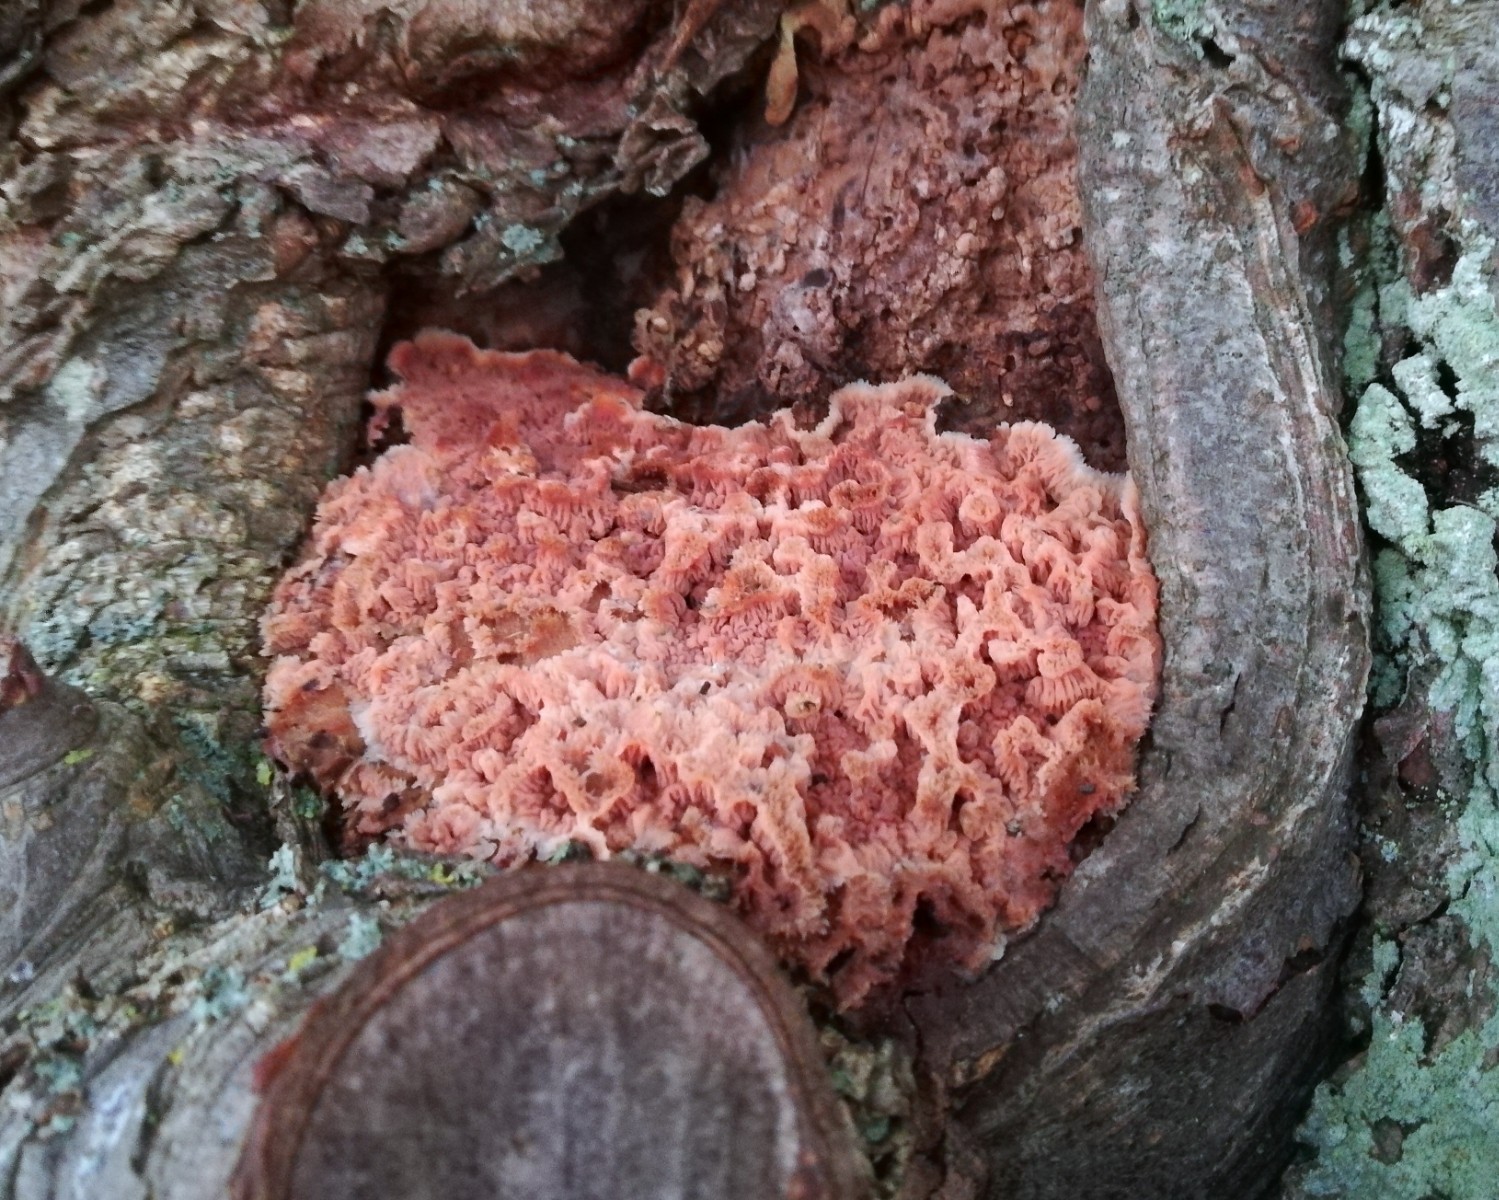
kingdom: Fungi
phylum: Basidiomycota
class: Agaricomycetes
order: Polyporales
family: Meruliaceae
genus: Phlebia
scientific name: Phlebia tremellosa
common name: bævrende åresvamp
